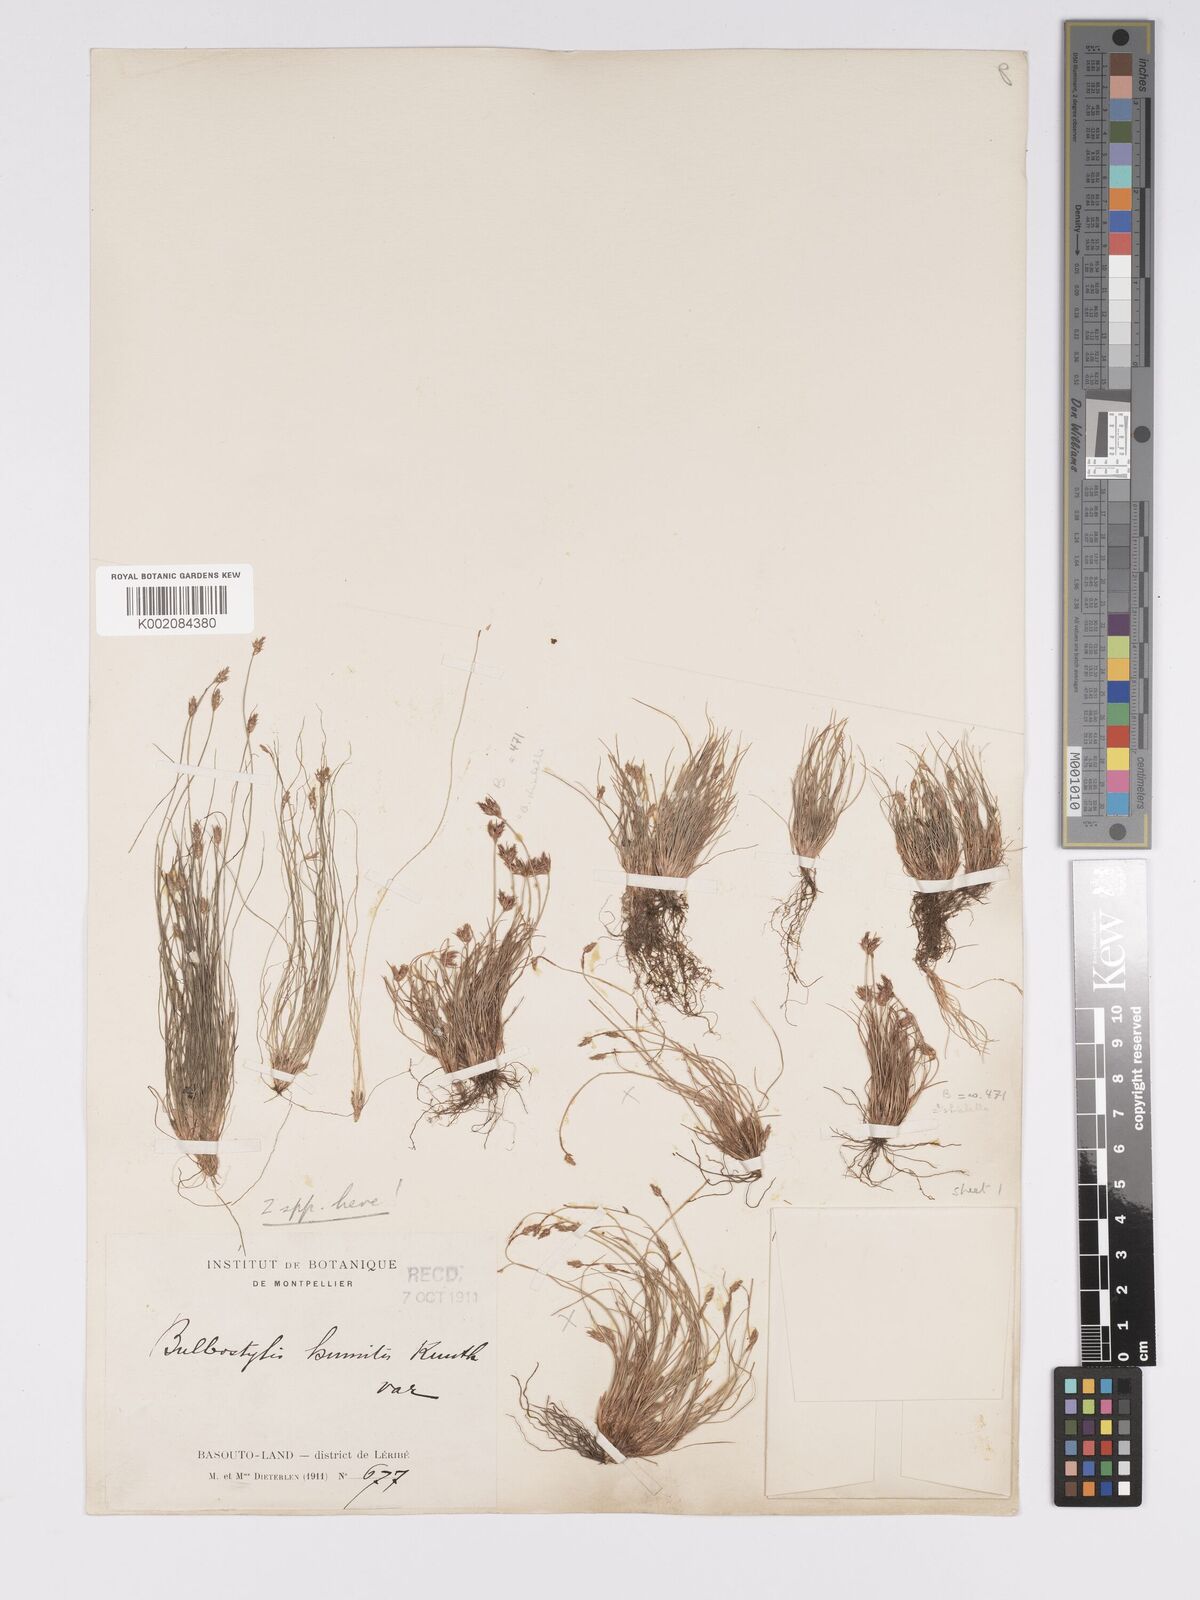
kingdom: Plantae
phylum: Tracheophyta
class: Liliopsida
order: Poales
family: Cyperaceae
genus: Bulbostylis
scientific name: Bulbostylis humilis
